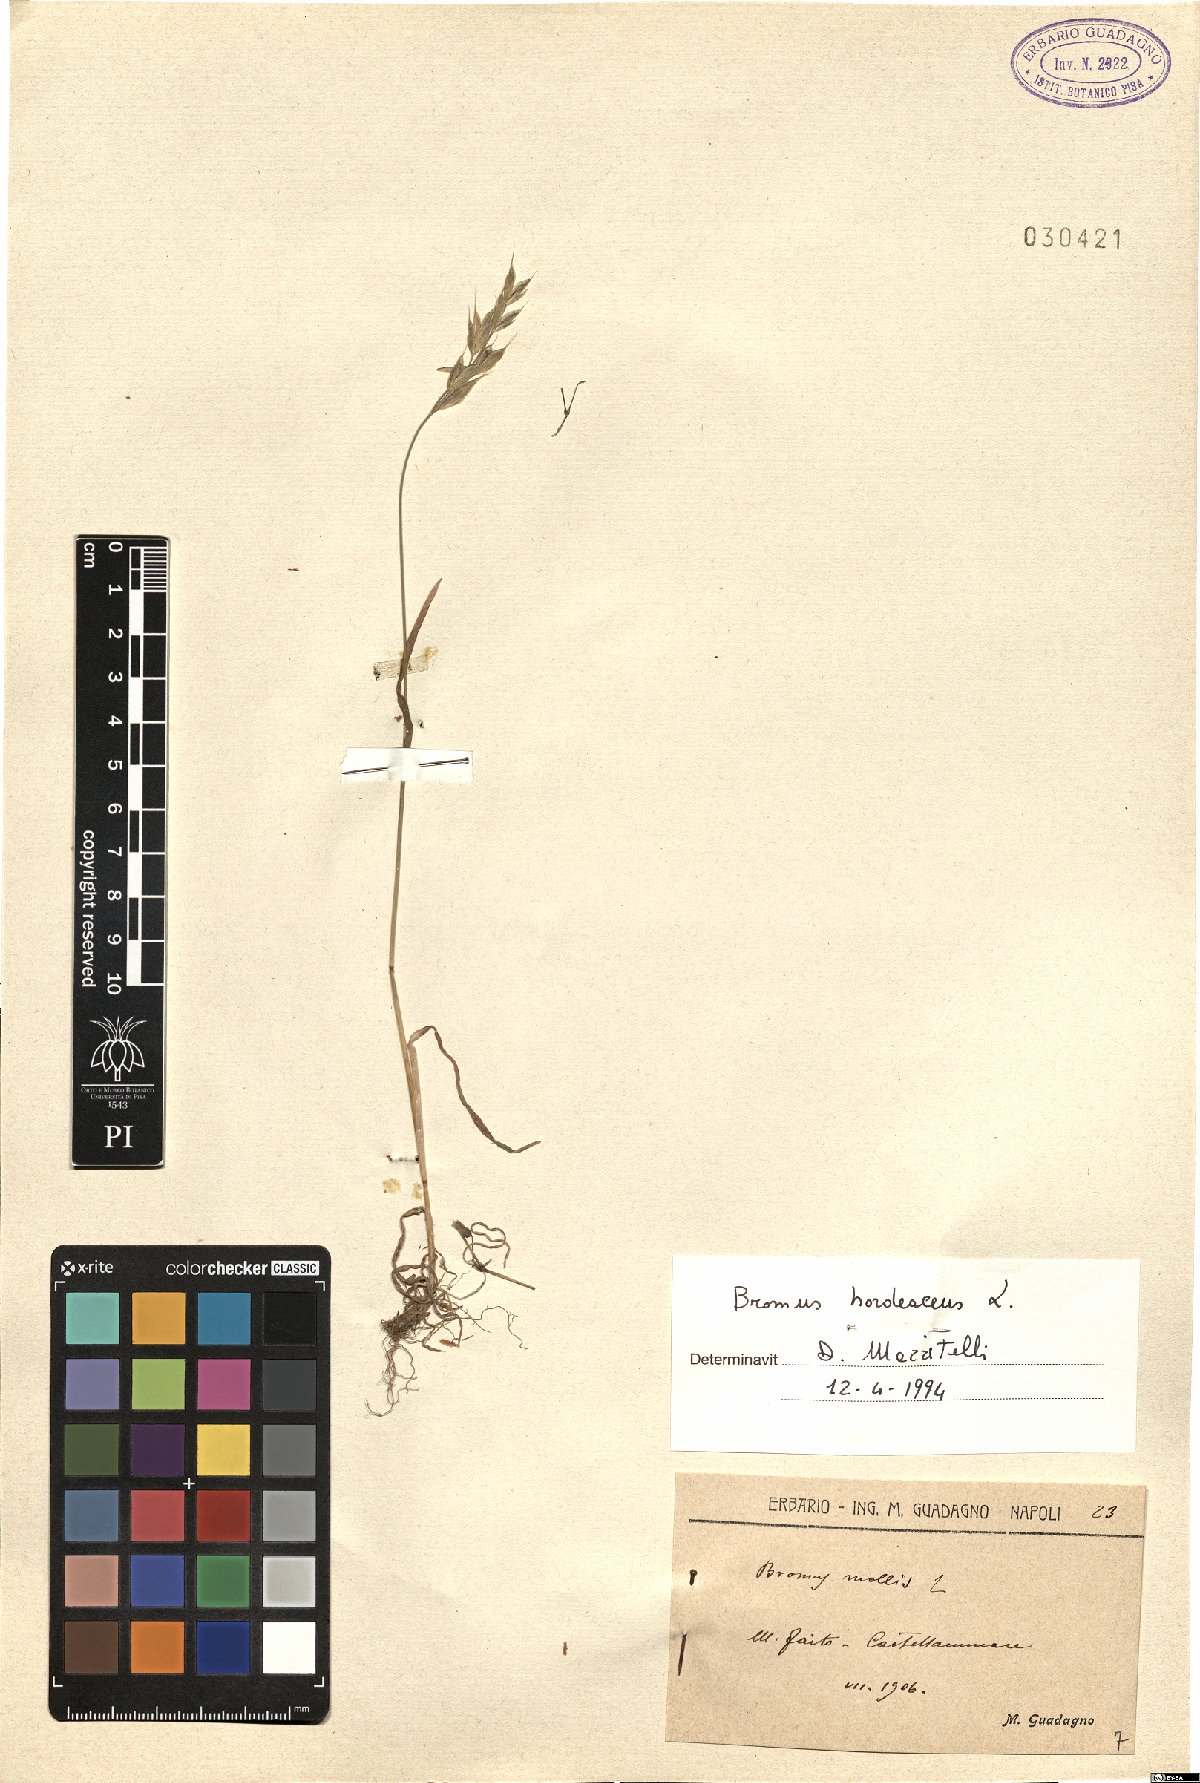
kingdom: Plantae
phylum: Tracheophyta
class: Liliopsida
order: Poales
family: Poaceae
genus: Bromus
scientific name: Bromus hordeaceus
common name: Soft brome
